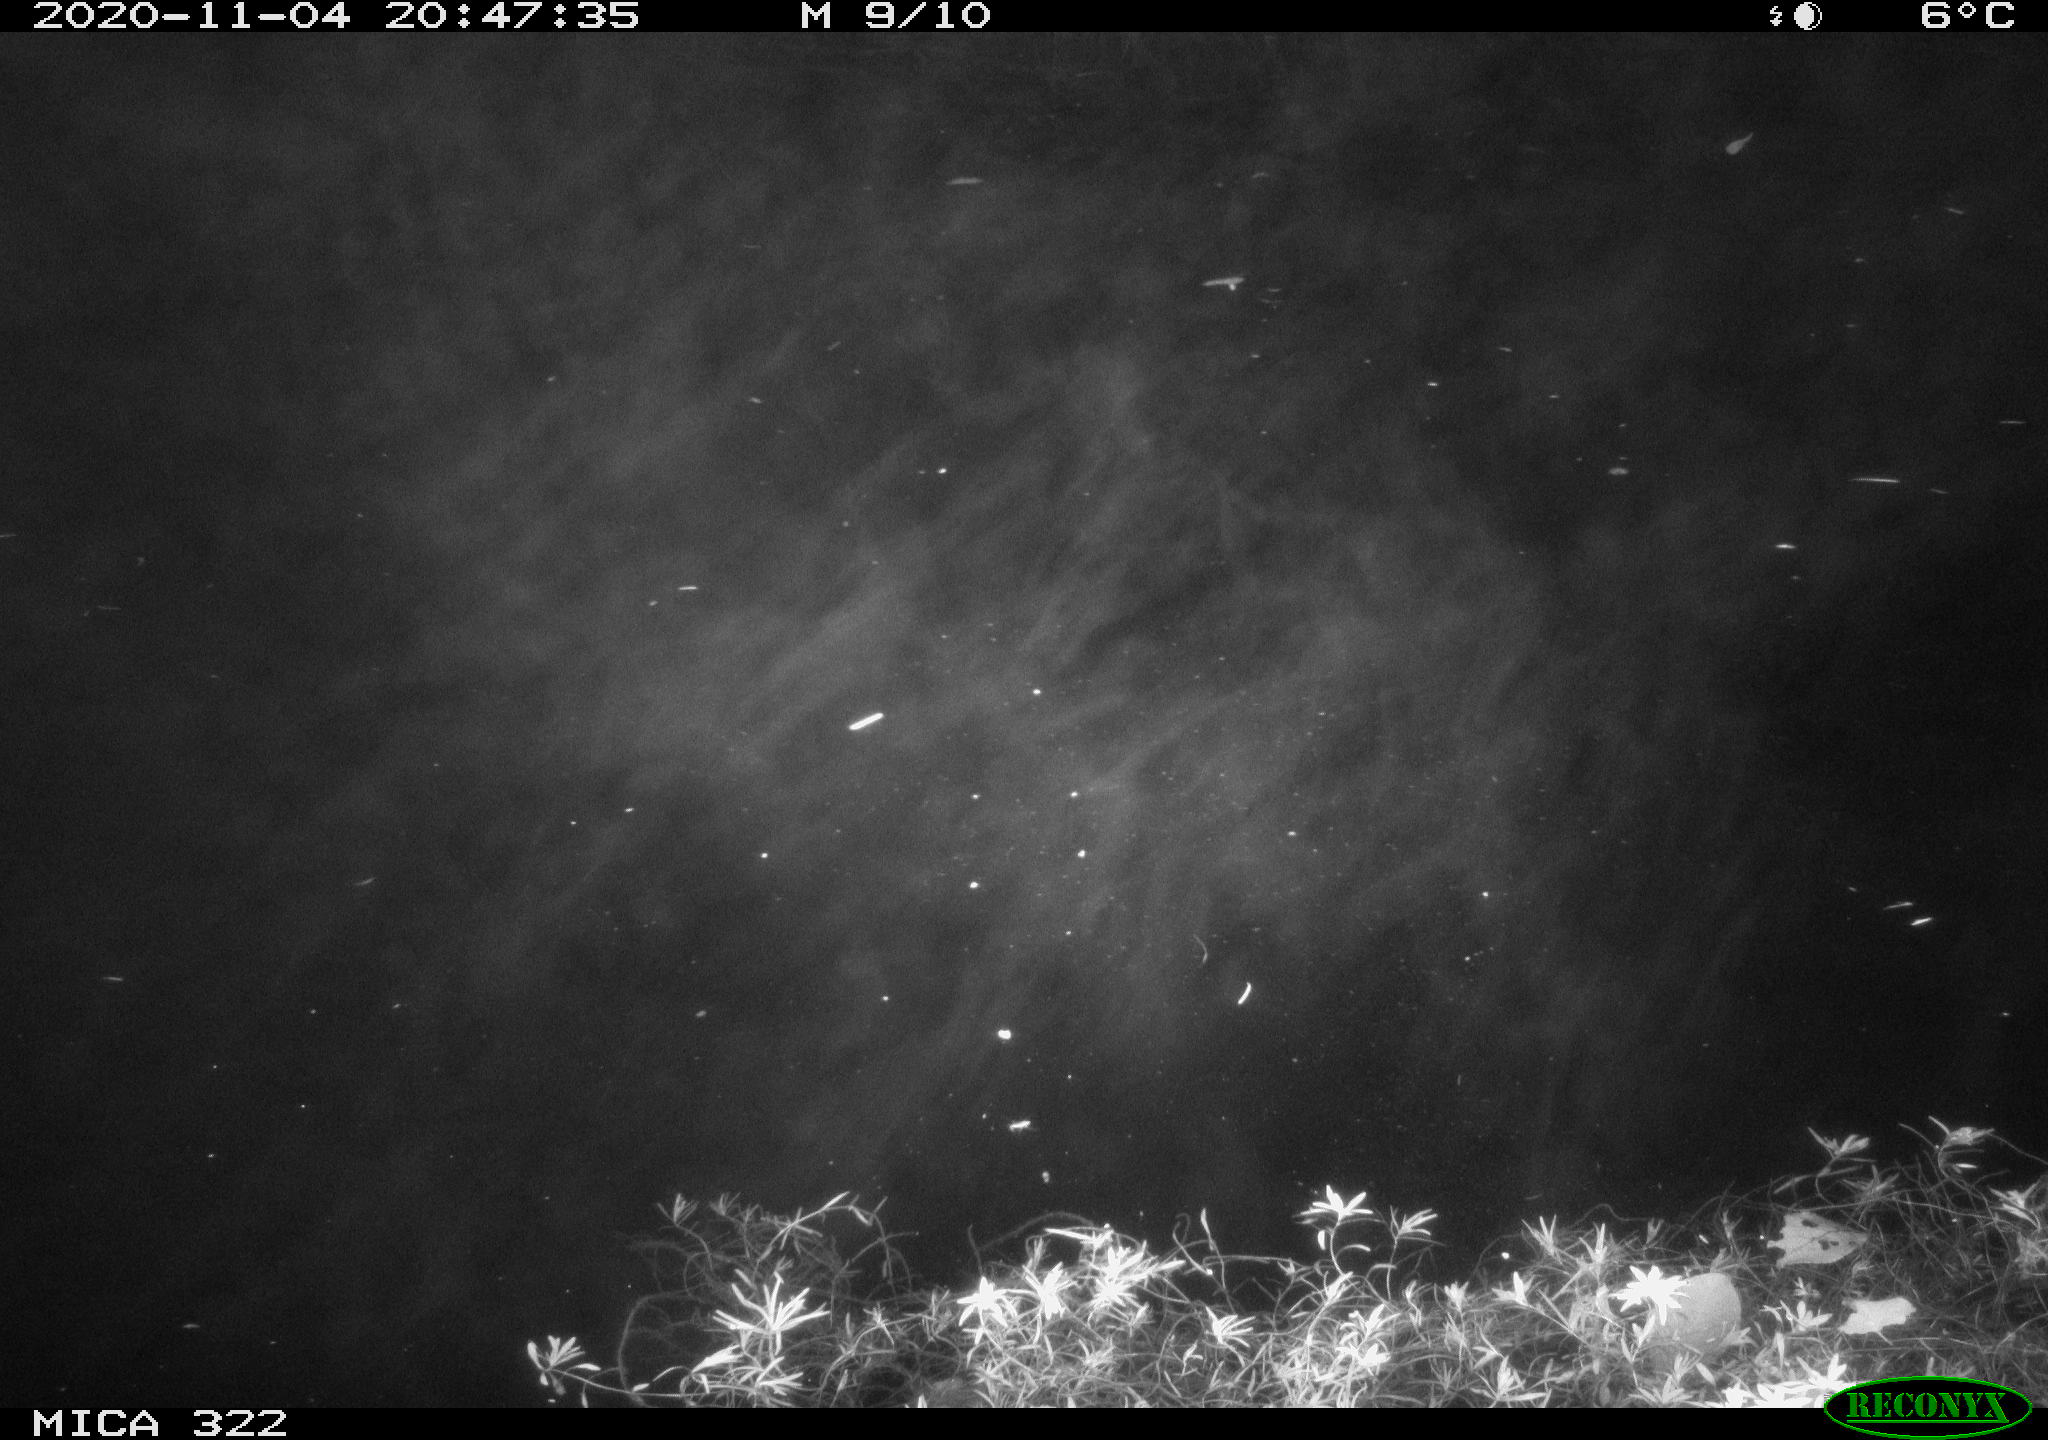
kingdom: Animalia
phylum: Chordata
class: Mammalia
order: Rodentia
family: Muridae
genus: Rattus
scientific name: Rattus norvegicus
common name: Brown rat
